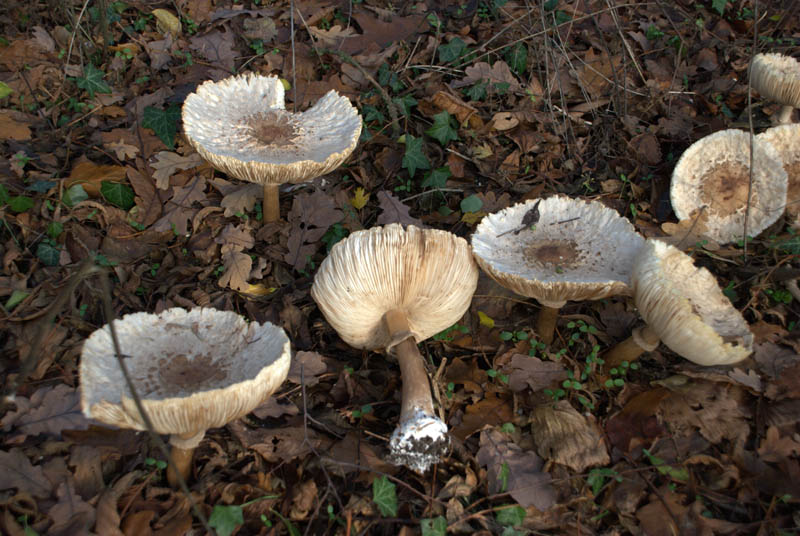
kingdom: Fungi
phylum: Basidiomycota
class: Agaricomycetes
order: Agaricales
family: Agaricaceae
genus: Chlorophyllum
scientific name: Chlorophyllum rhacodes
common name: ægte rabarberhat
